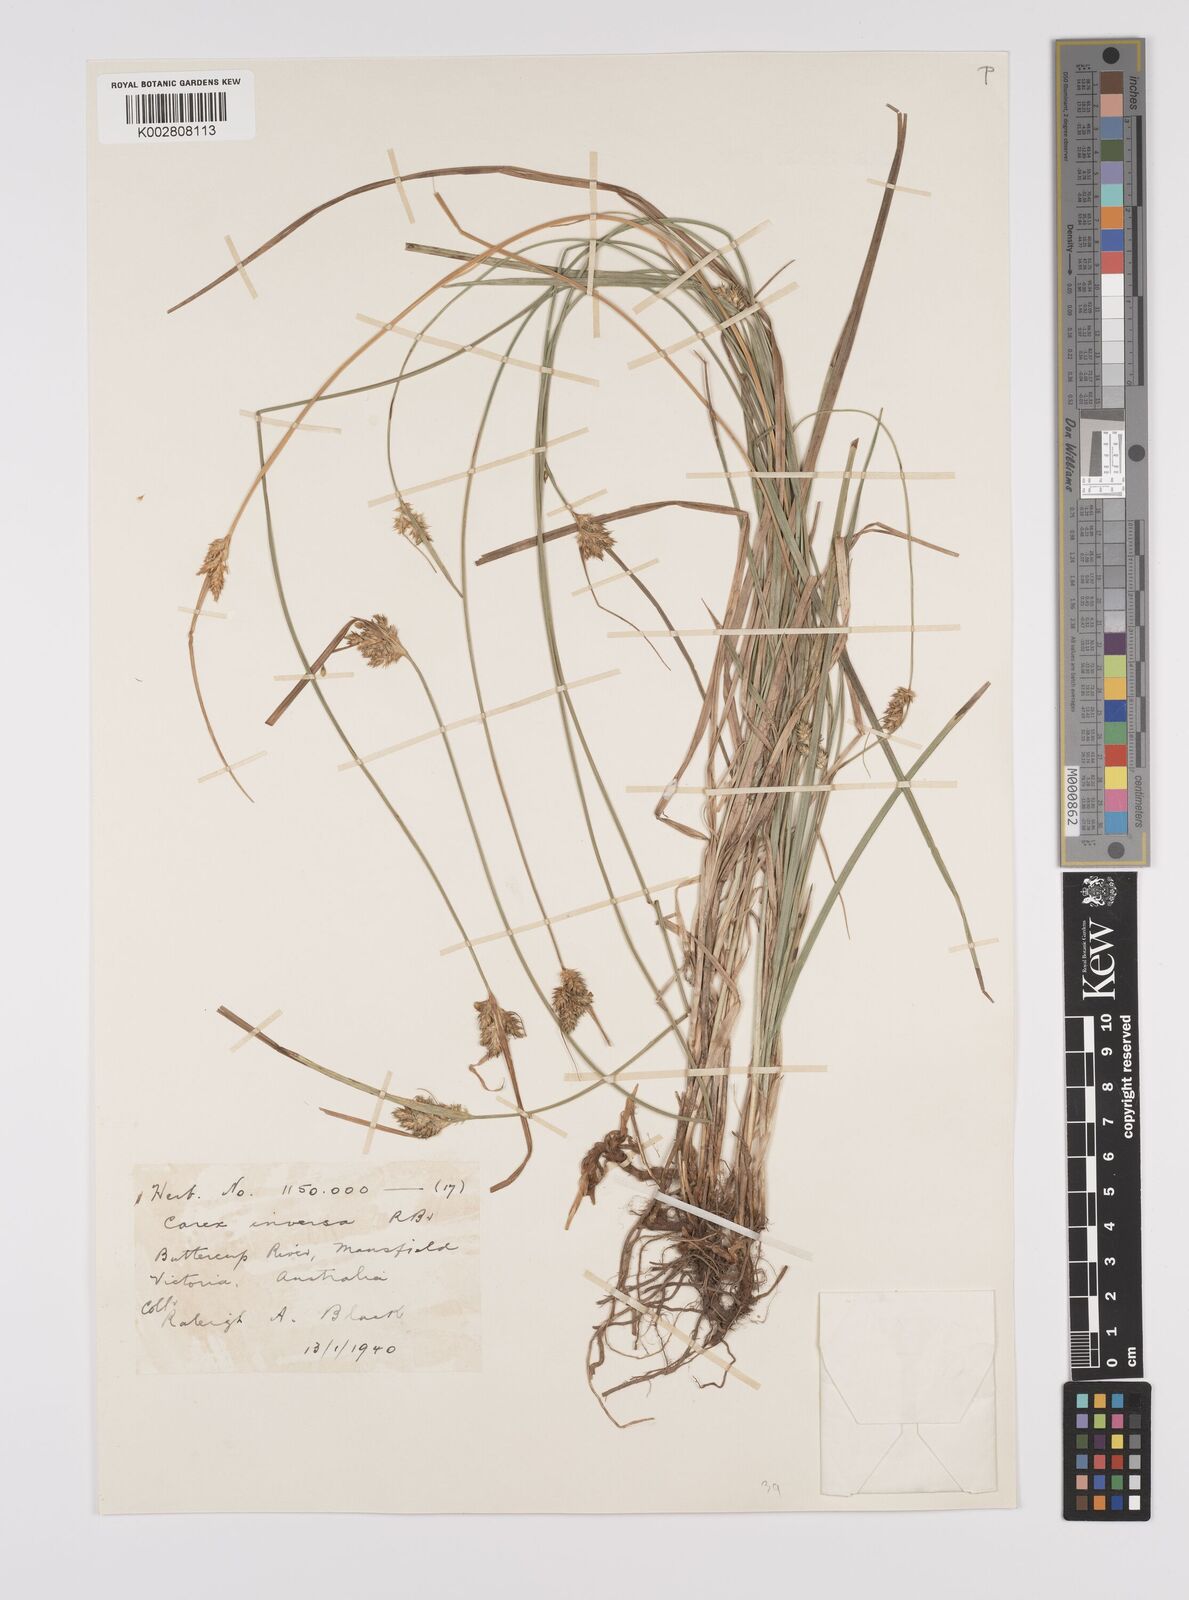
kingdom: Plantae
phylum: Tracheophyta
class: Liliopsida
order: Poales
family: Cyperaceae
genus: Carex
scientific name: Carex inversa
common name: Knob sedge
